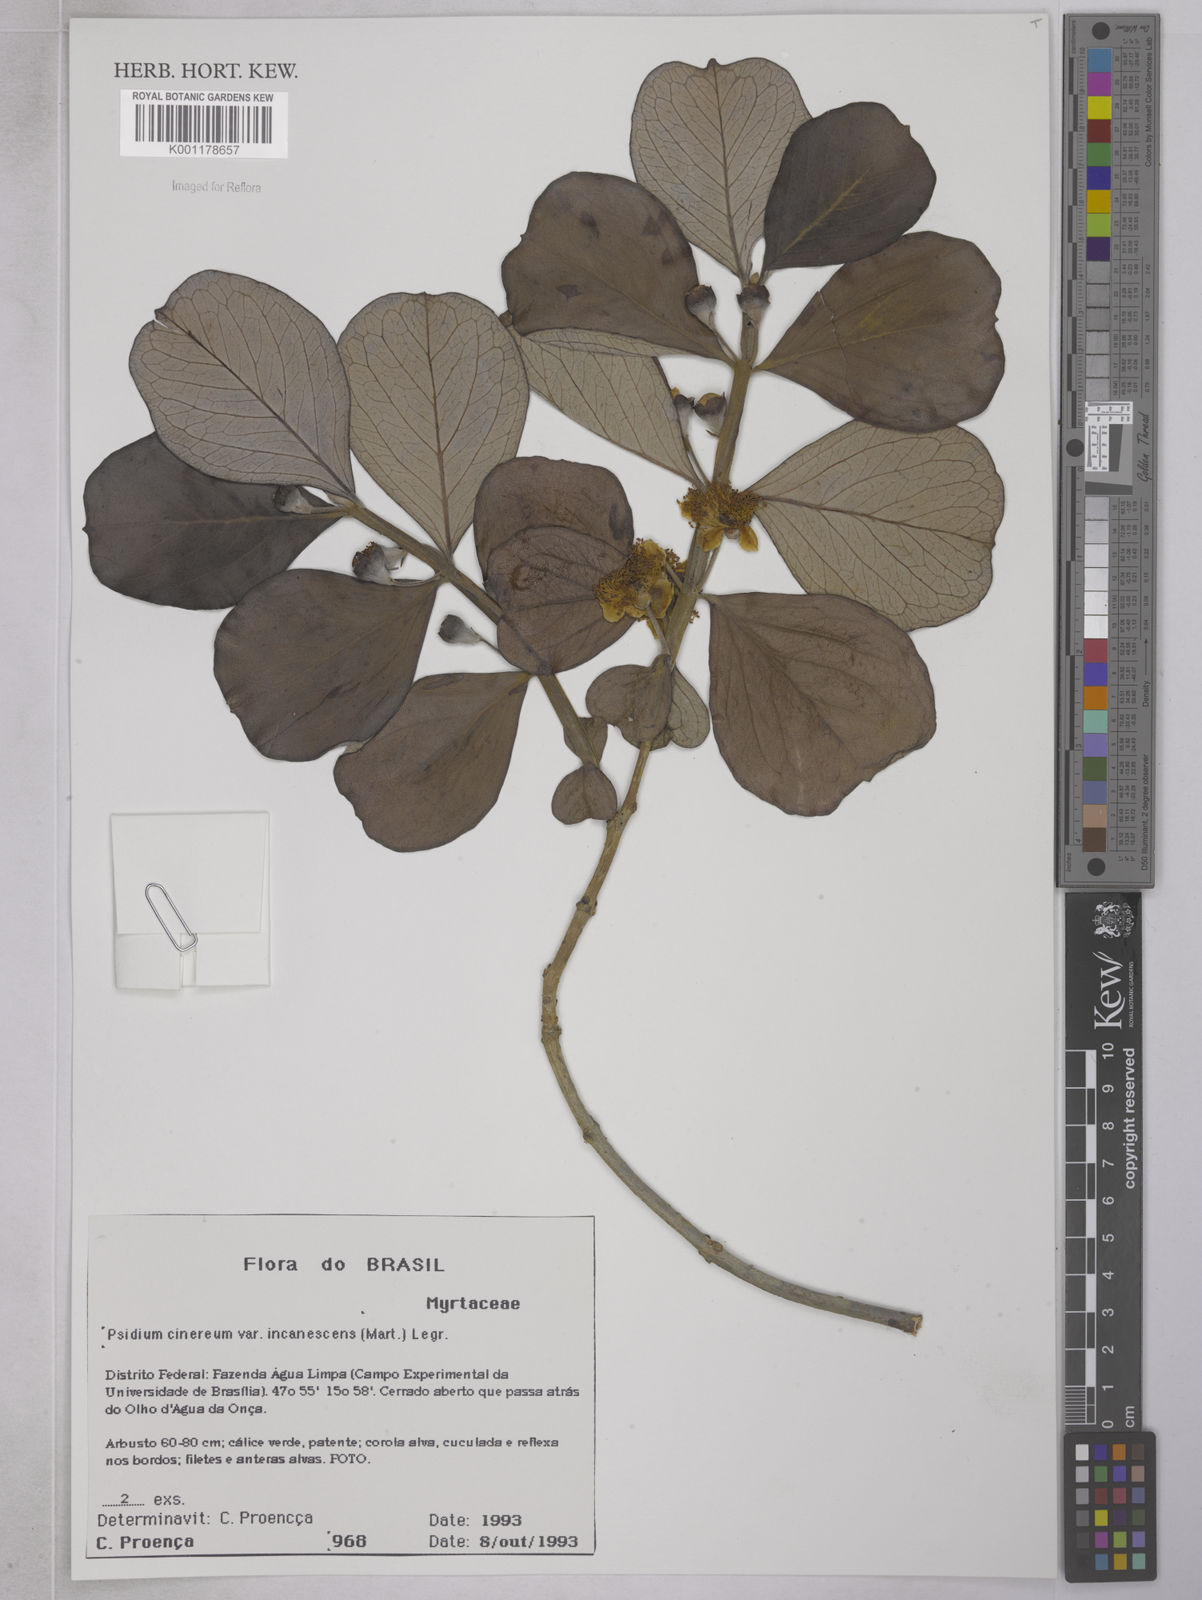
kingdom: Plantae
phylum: Tracheophyta
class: Magnoliopsida
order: Myrtales
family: Myrtaceae
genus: Psidium
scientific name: Psidium grandifolium
